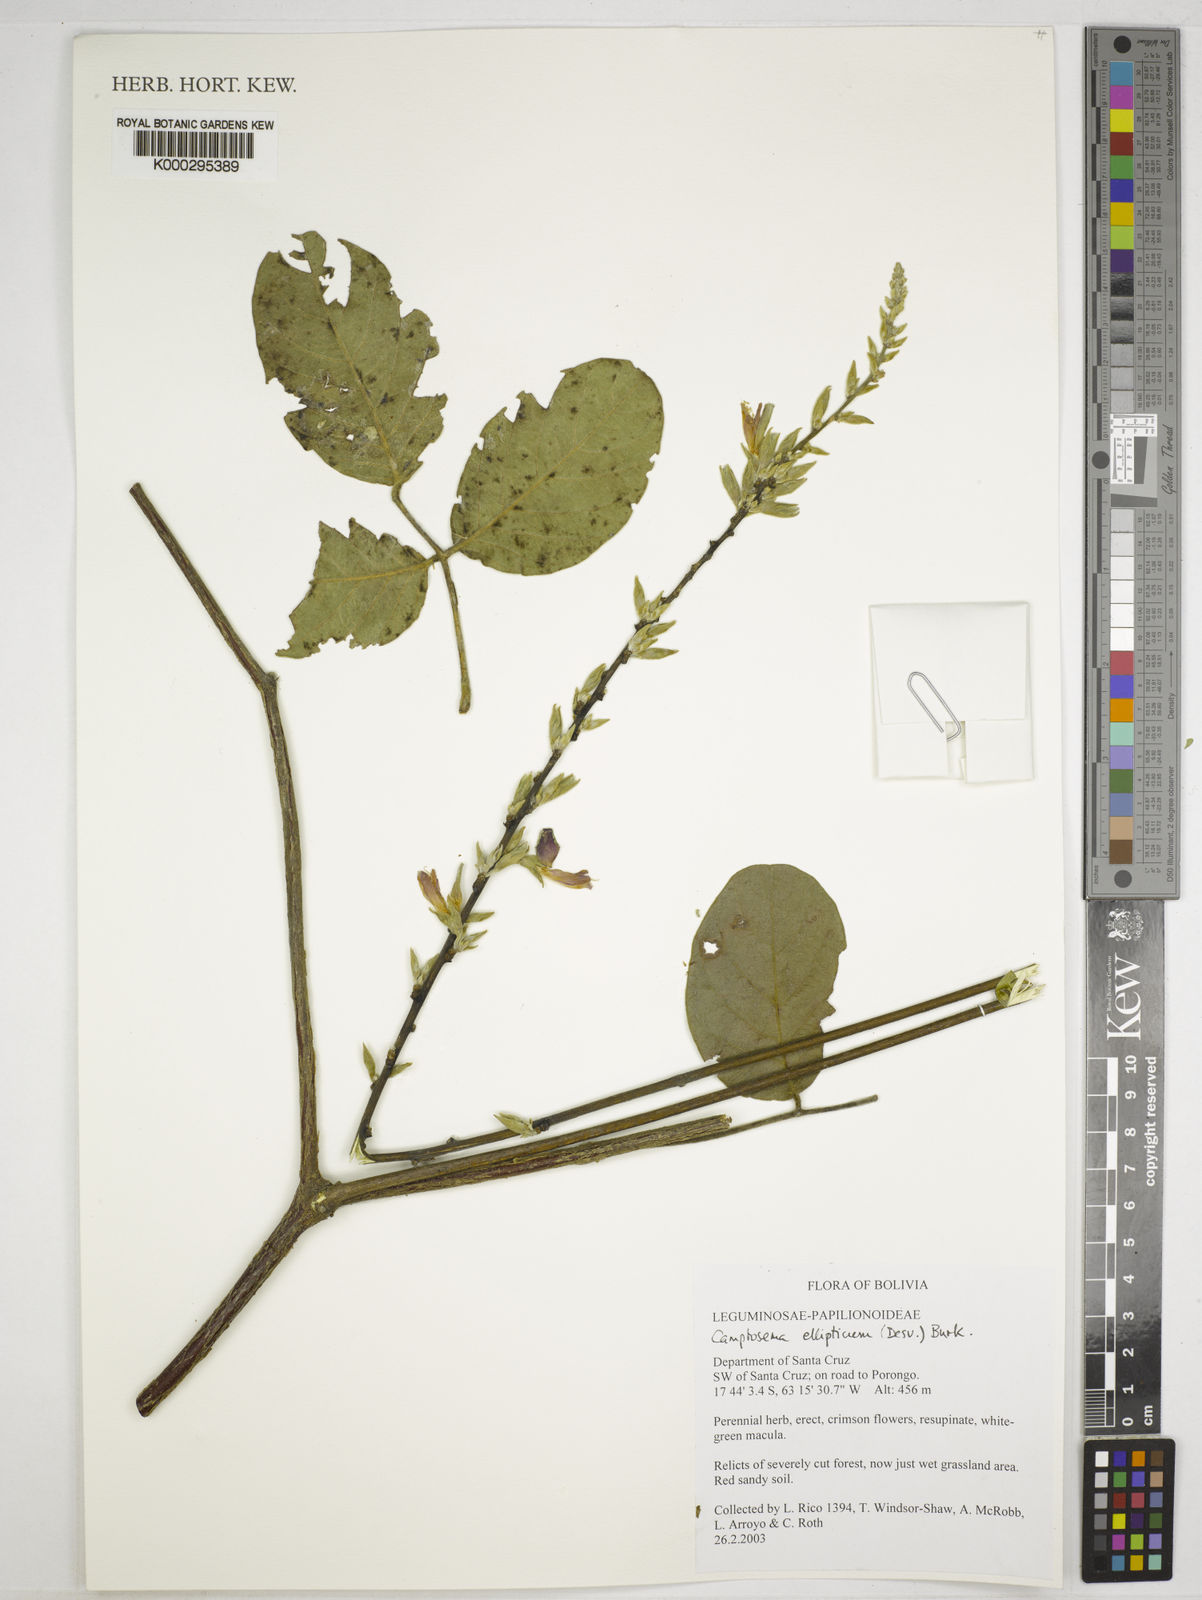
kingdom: Plantae
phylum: Tracheophyta
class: Magnoliopsida
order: Fabales
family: Fabaceae
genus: Camptosema
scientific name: Camptosema
